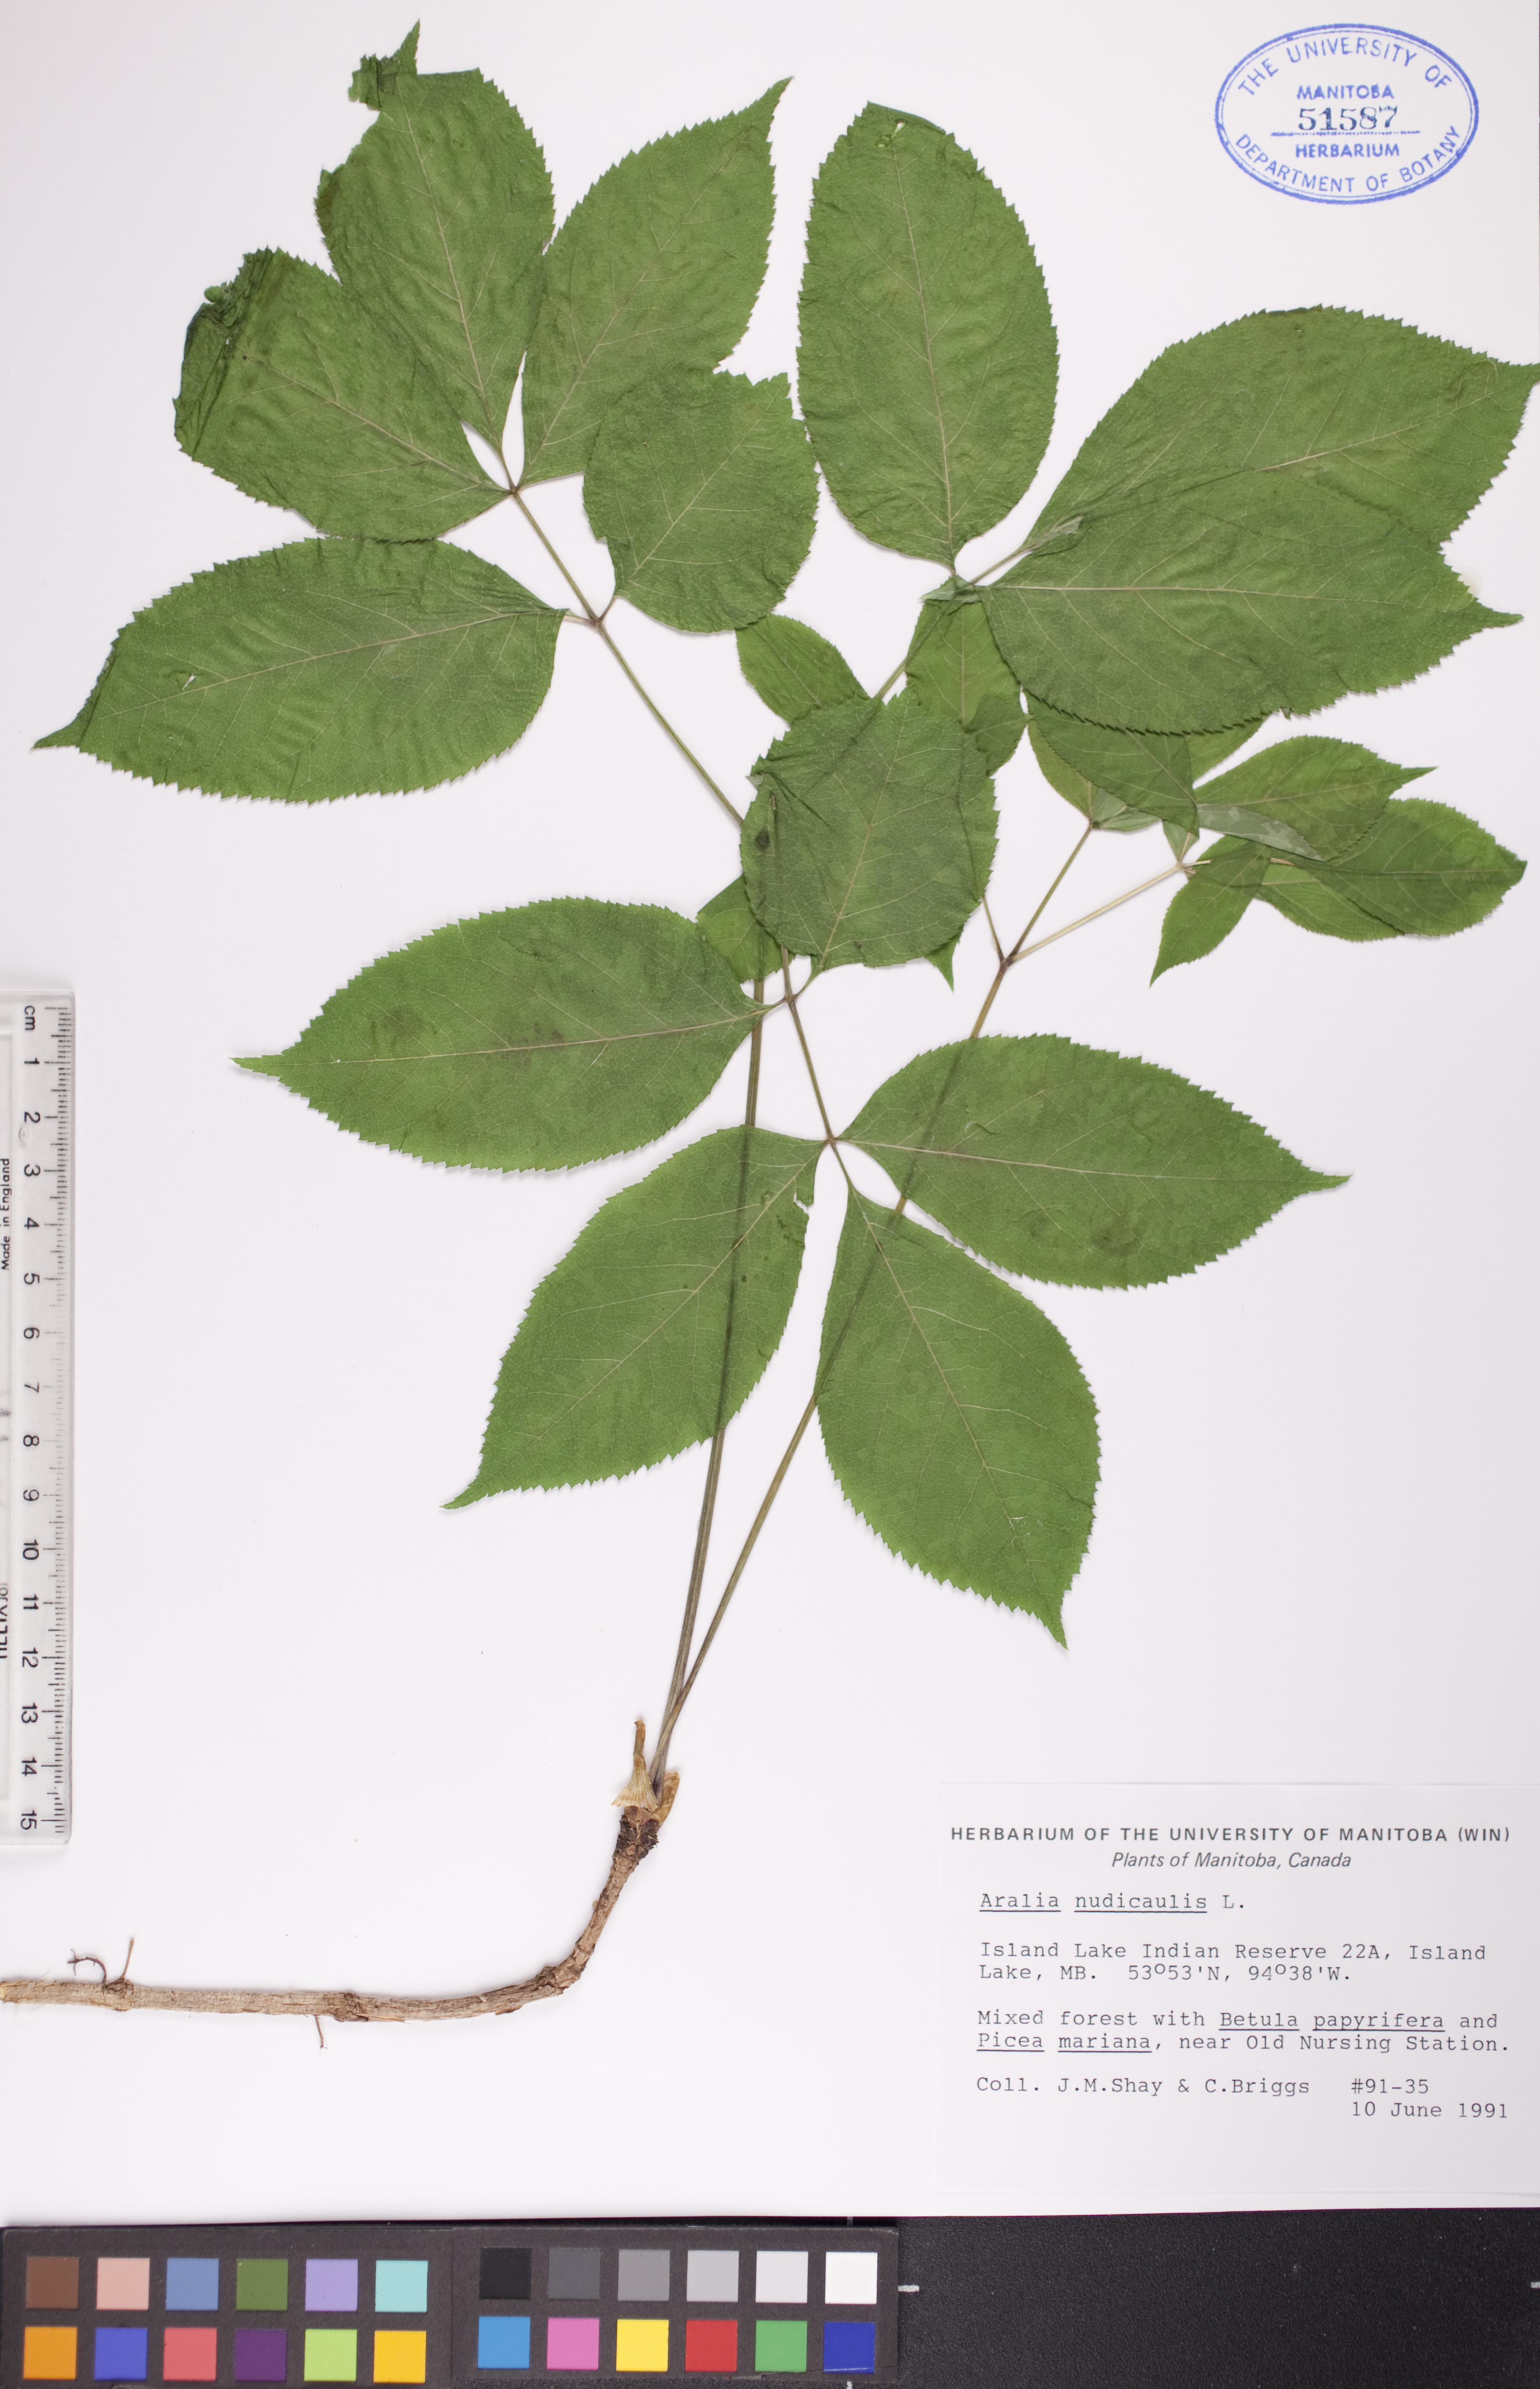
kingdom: Plantae
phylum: Tracheophyta
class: Magnoliopsida
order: Apiales
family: Araliaceae
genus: Aralia
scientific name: Aralia nudicaulis
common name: Wild sarsaparilla
